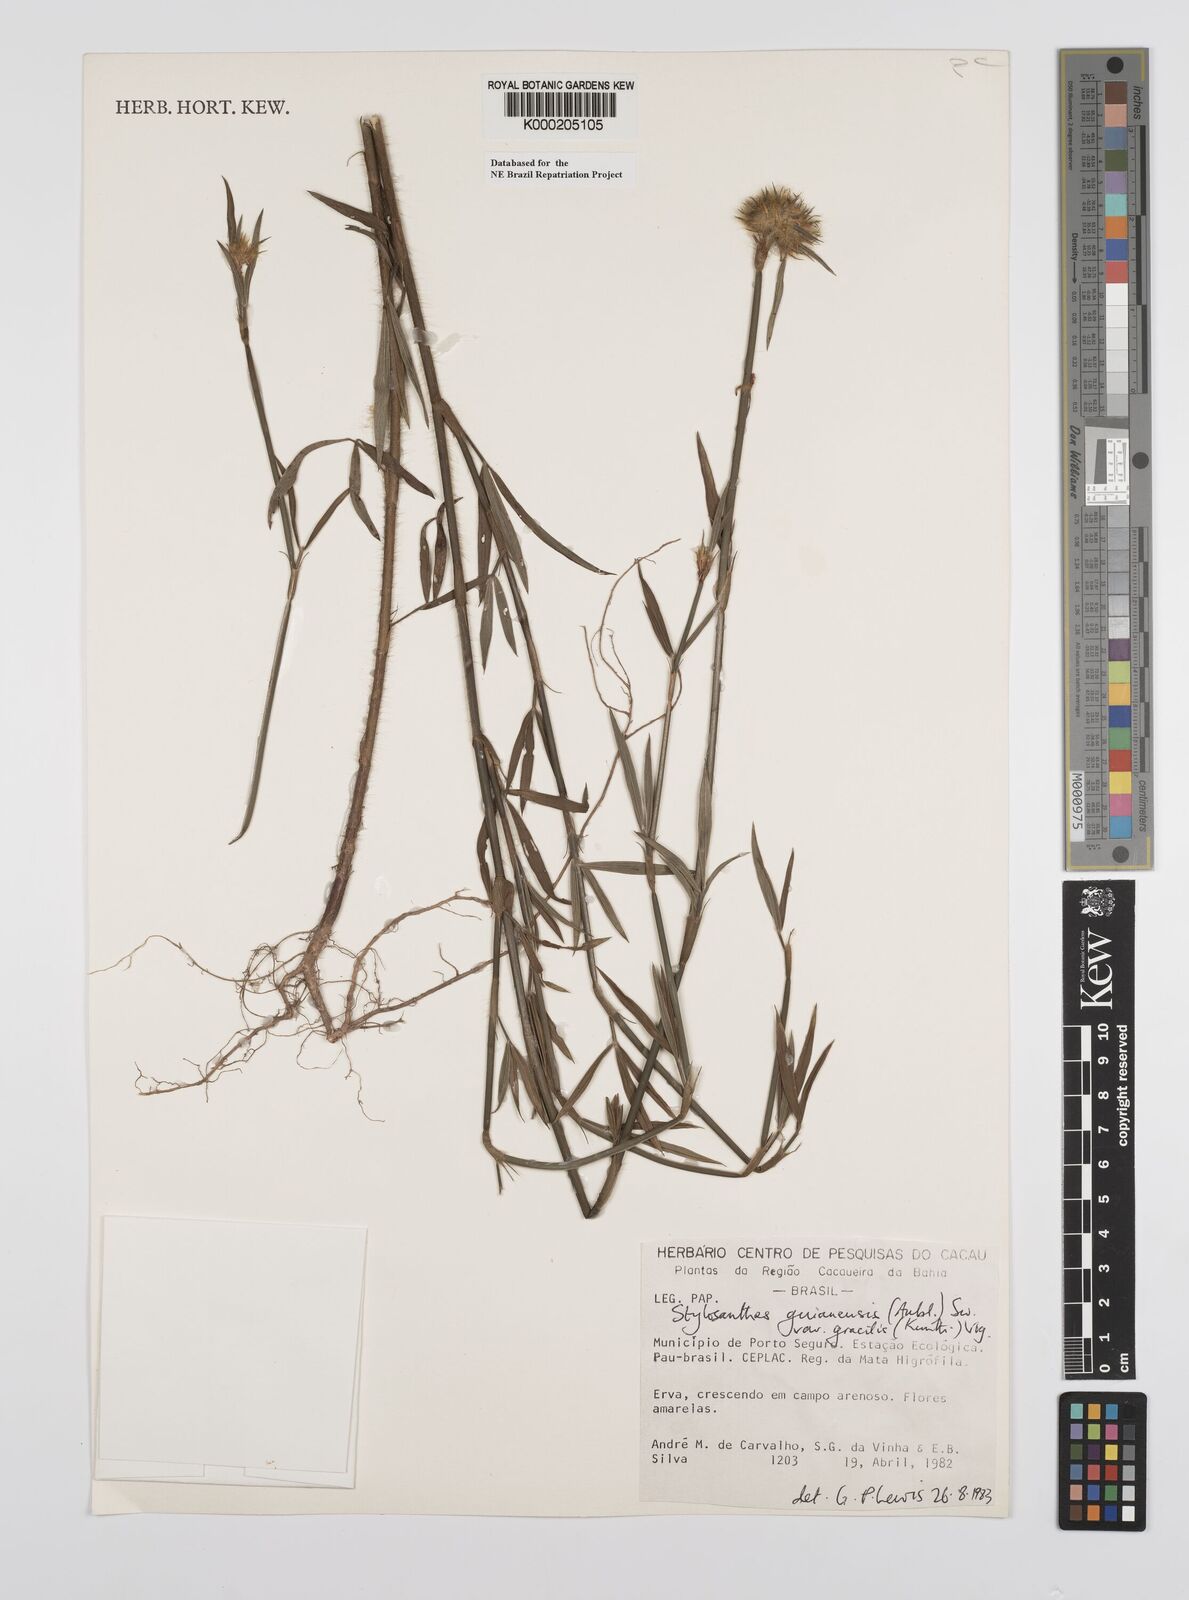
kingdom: Plantae
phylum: Tracheophyta
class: Magnoliopsida
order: Fabales
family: Fabaceae
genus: Stylosanthes
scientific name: Stylosanthes guianensis
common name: Pencil flower
